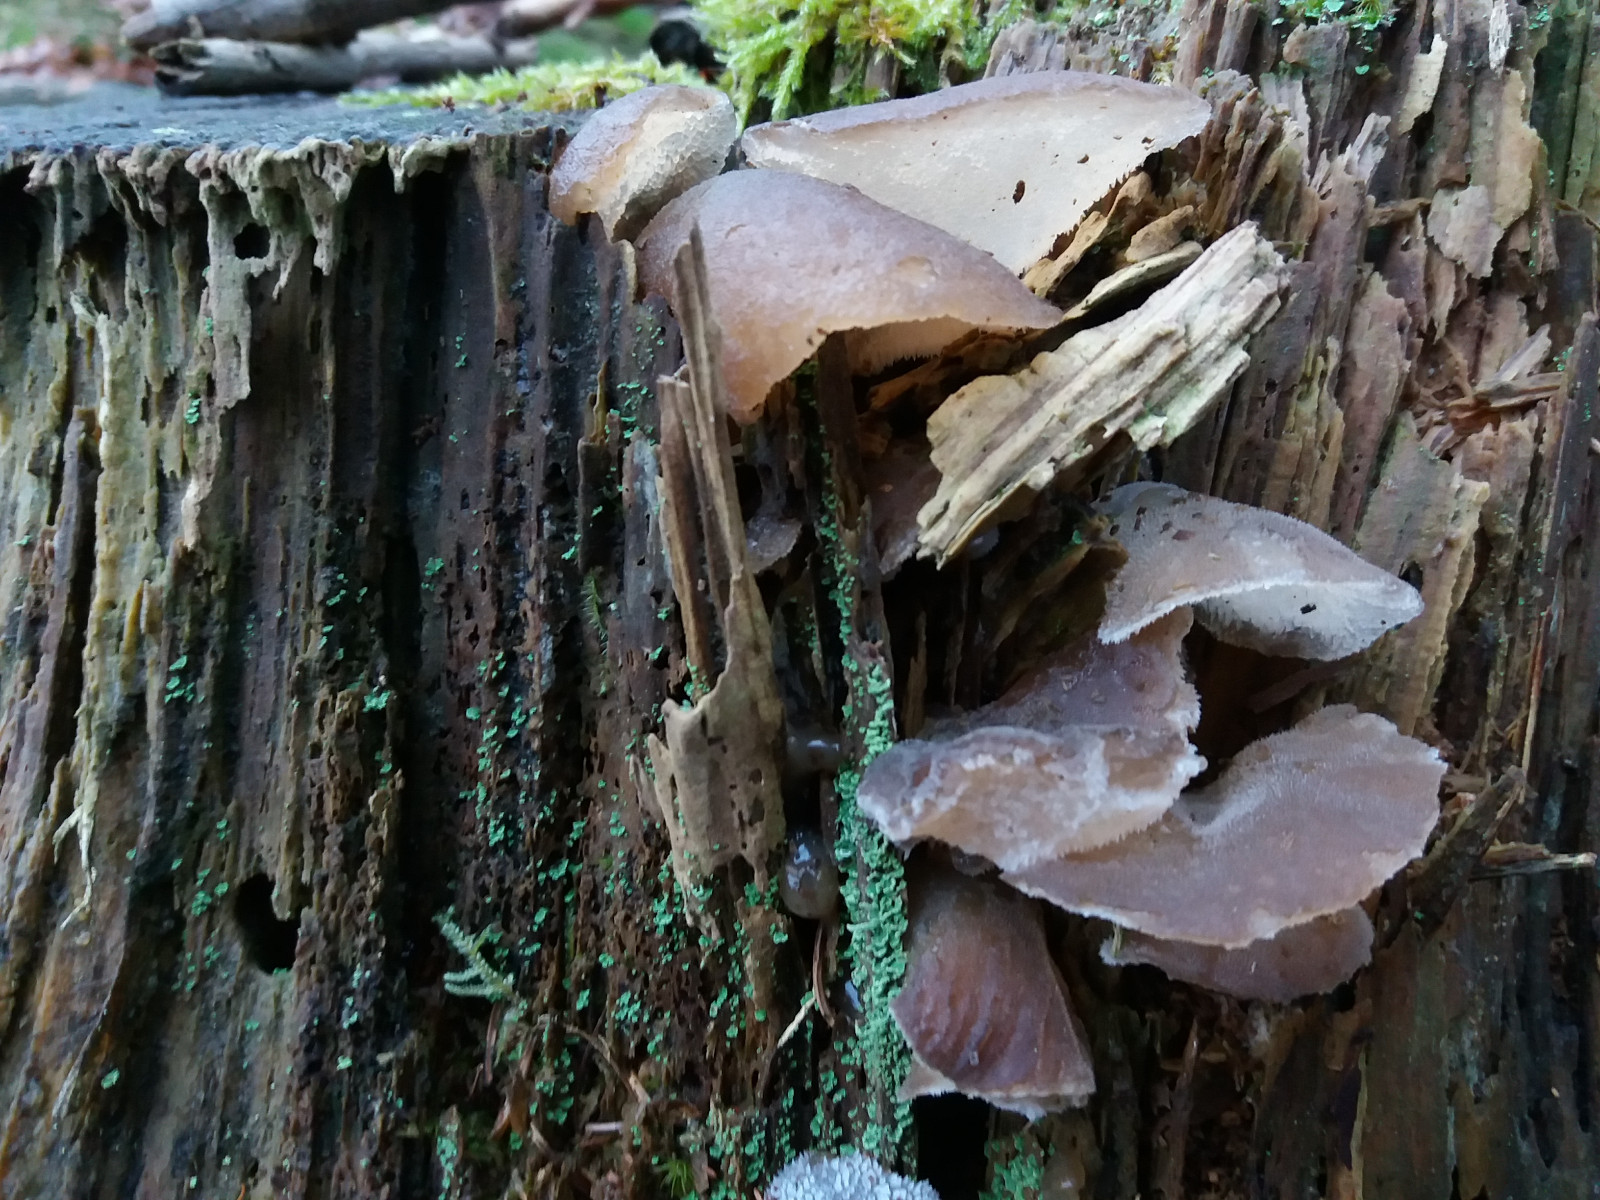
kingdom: Fungi
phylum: Basidiomycota
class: Agaricomycetes
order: Auriculariales
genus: Pseudohydnum
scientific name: Pseudohydnum gelatinosum
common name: bævretand
